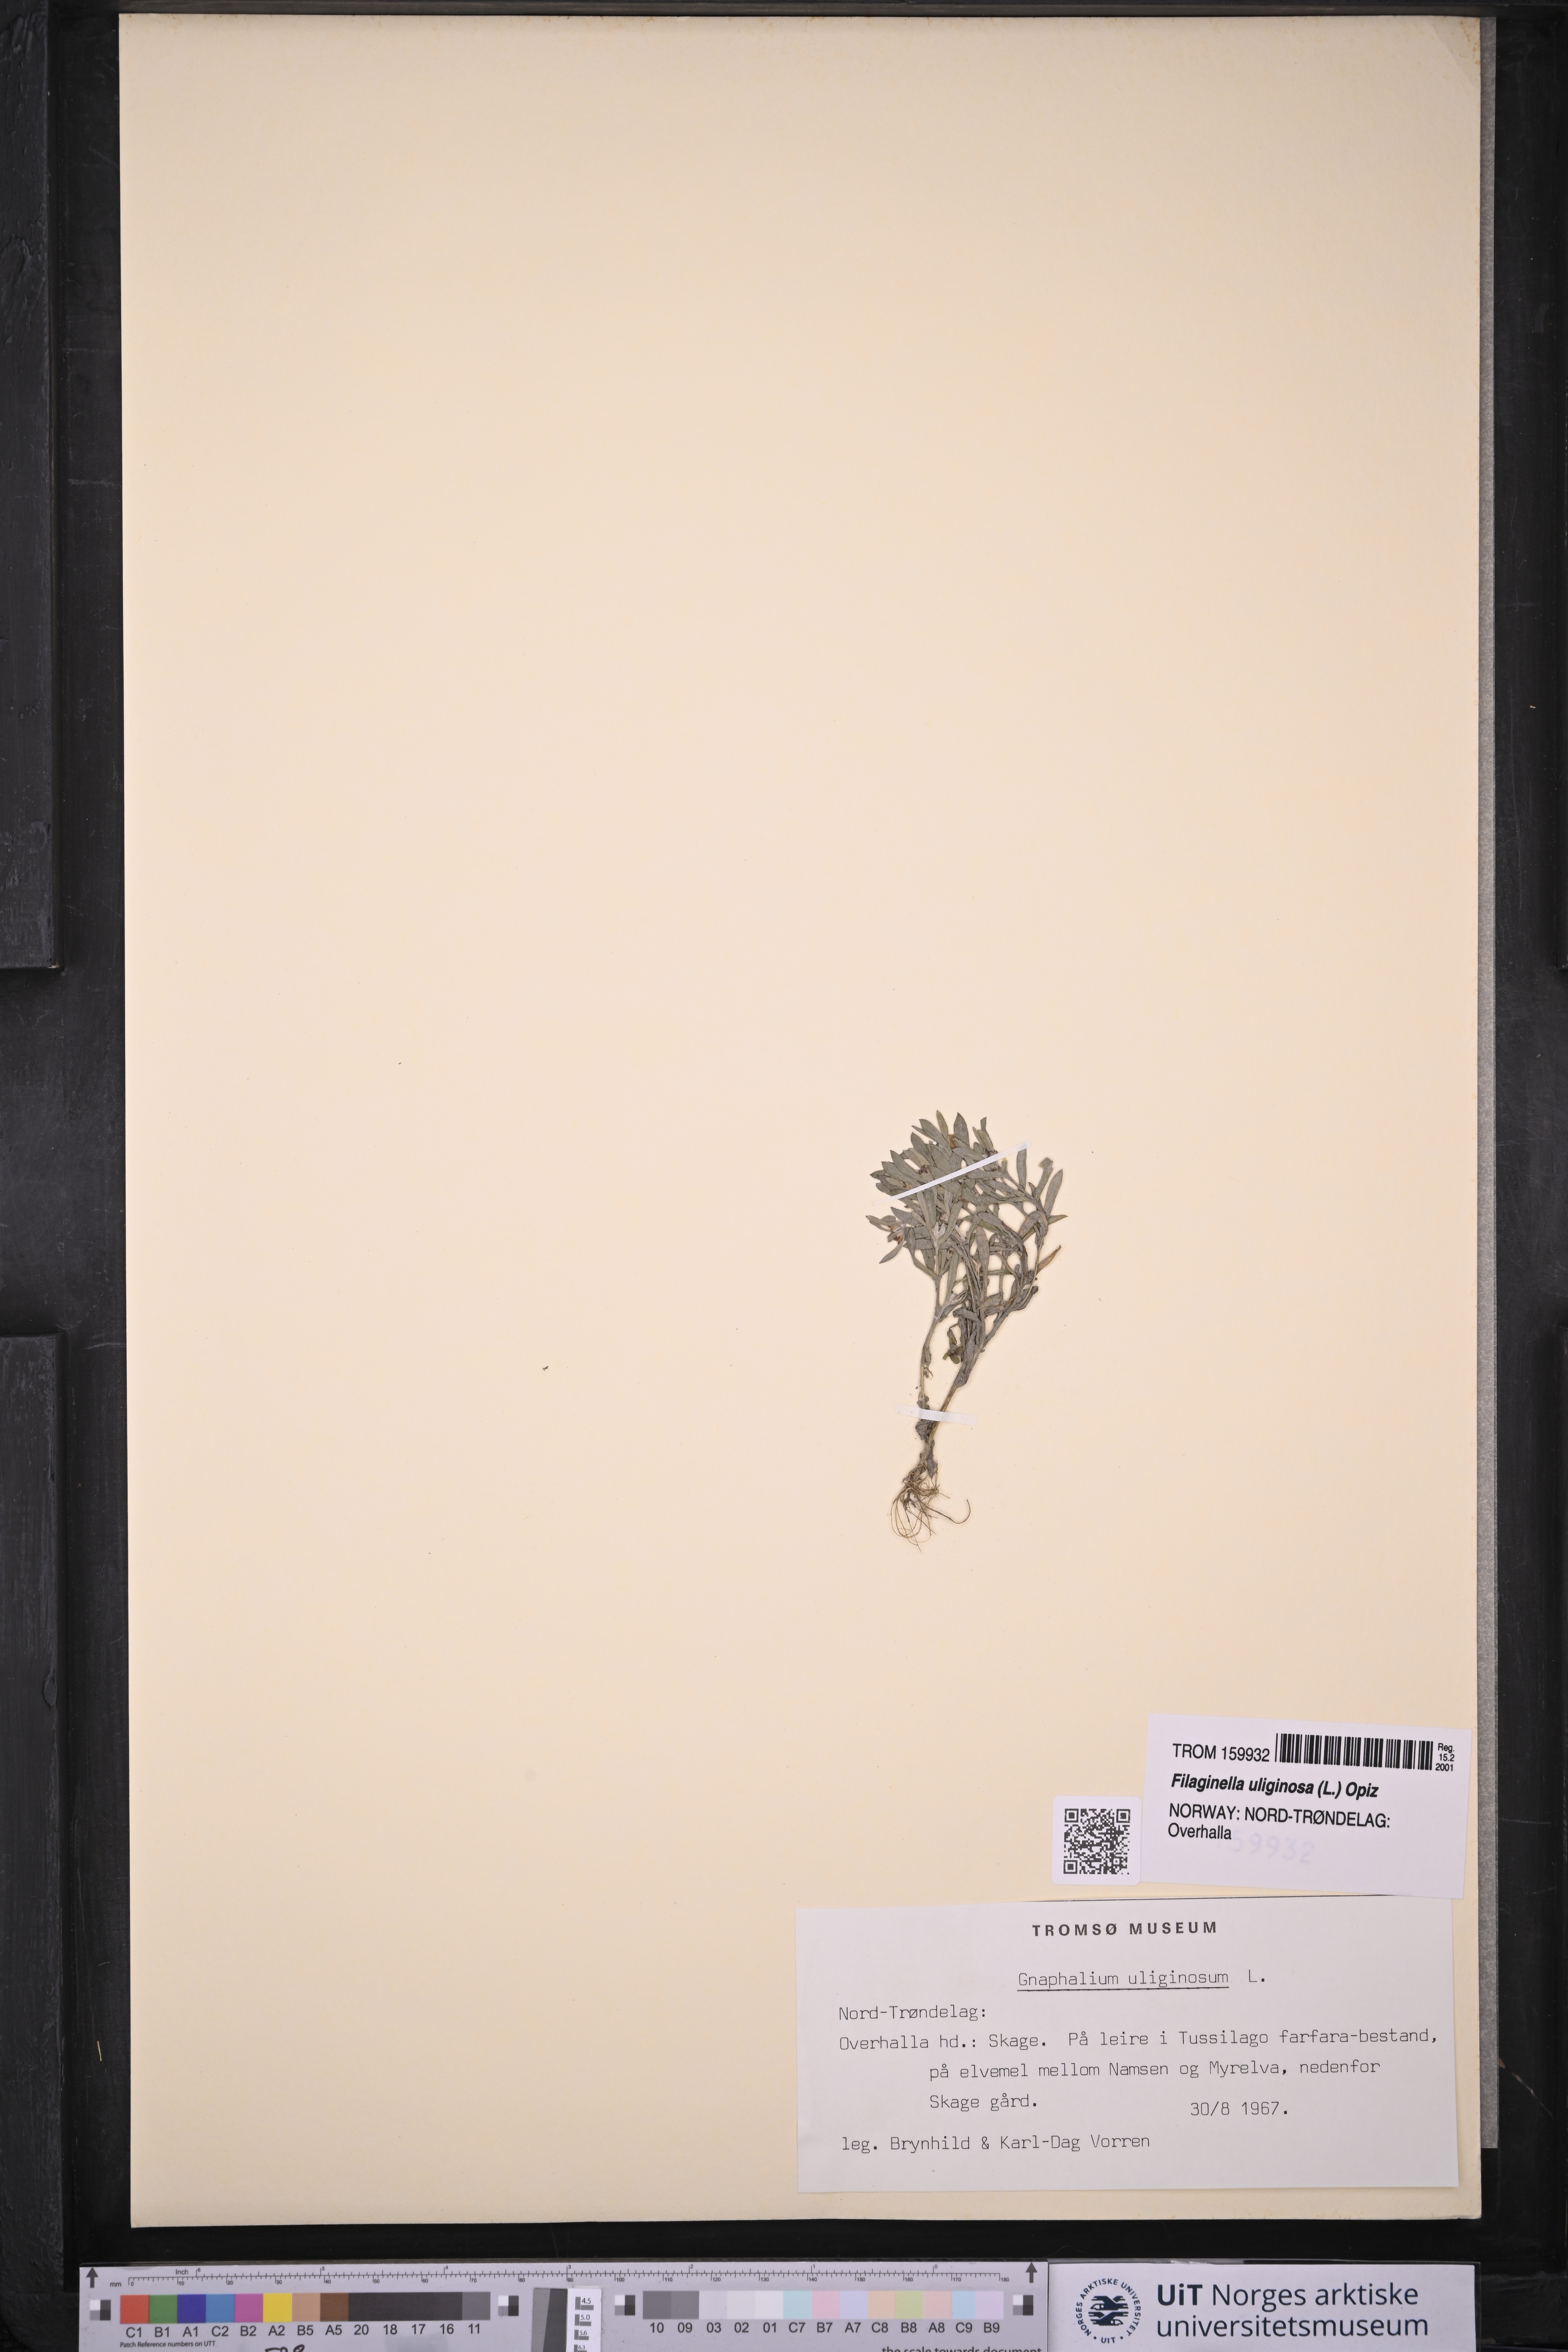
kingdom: Plantae
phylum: Tracheophyta
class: Magnoliopsida
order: Asterales
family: Asteraceae
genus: Gnaphalium
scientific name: Gnaphalium uliginosum
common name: Marsh cudweed
